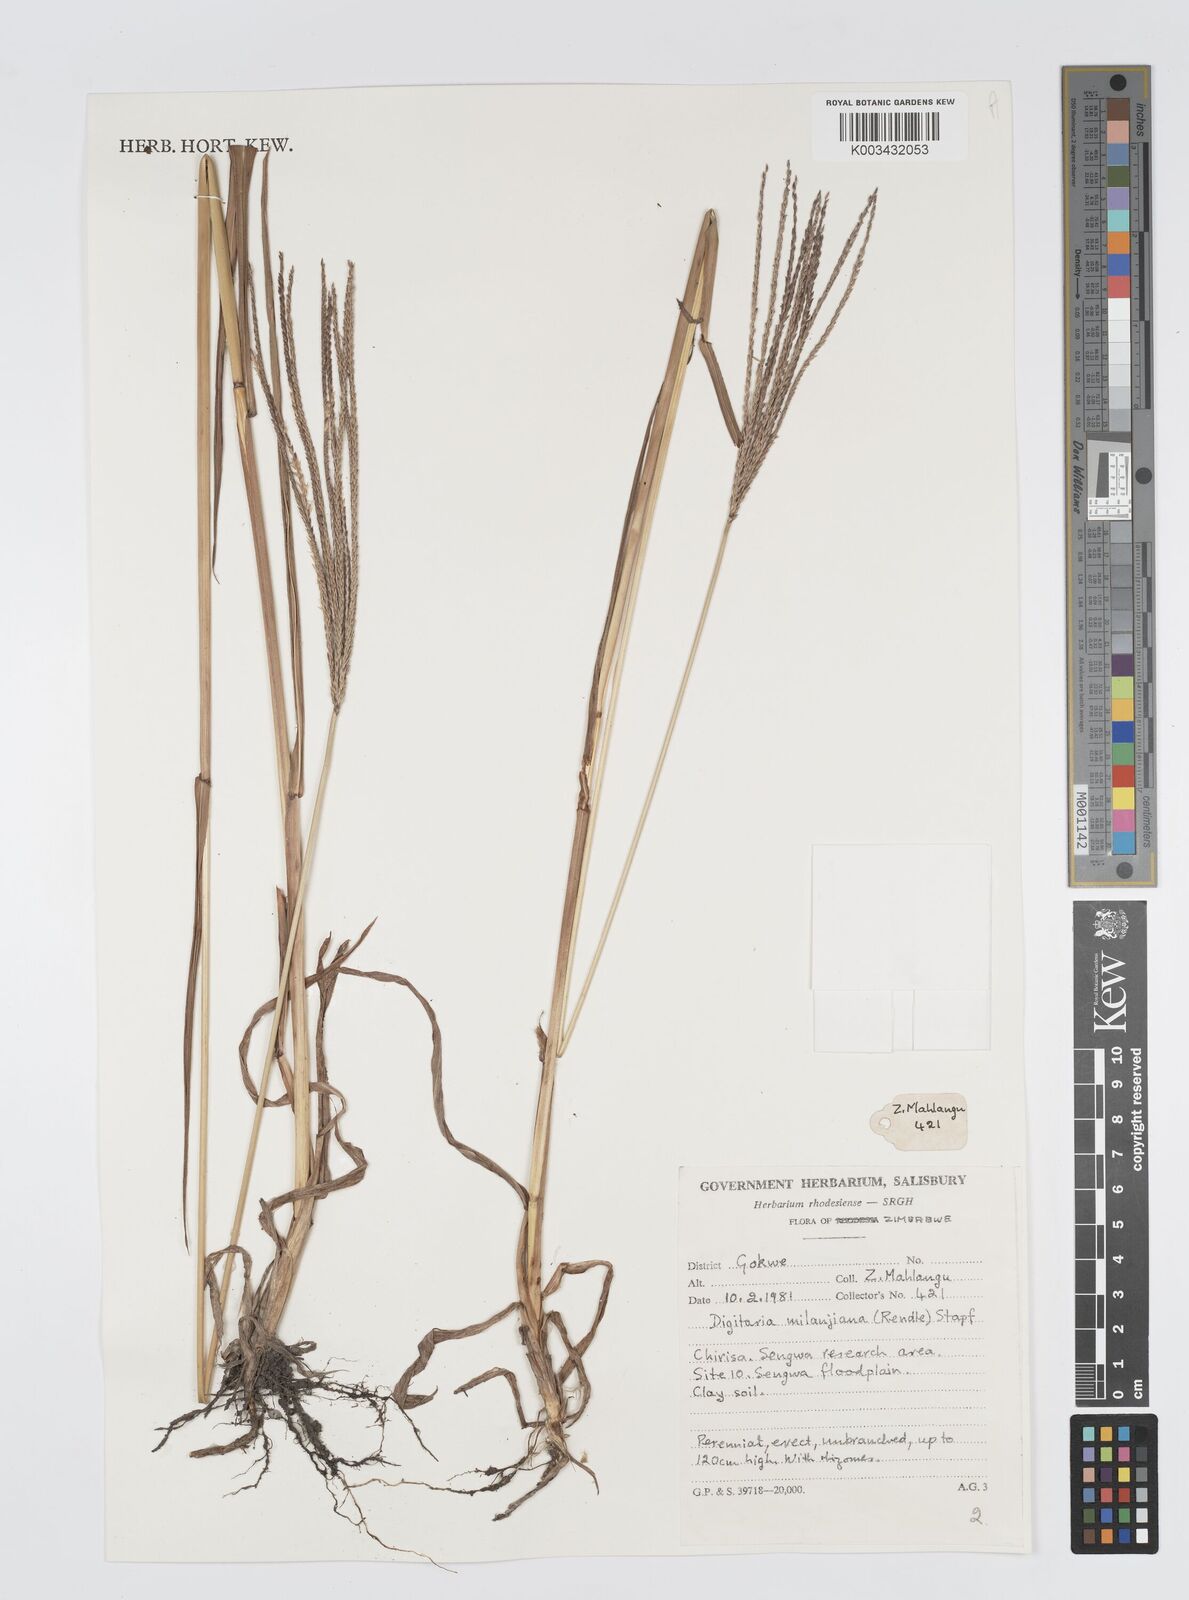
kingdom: Plantae
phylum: Tracheophyta
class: Liliopsida
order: Poales
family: Poaceae
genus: Digitaria
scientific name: Digitaria milanjiana
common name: Madagascar crabgrass
